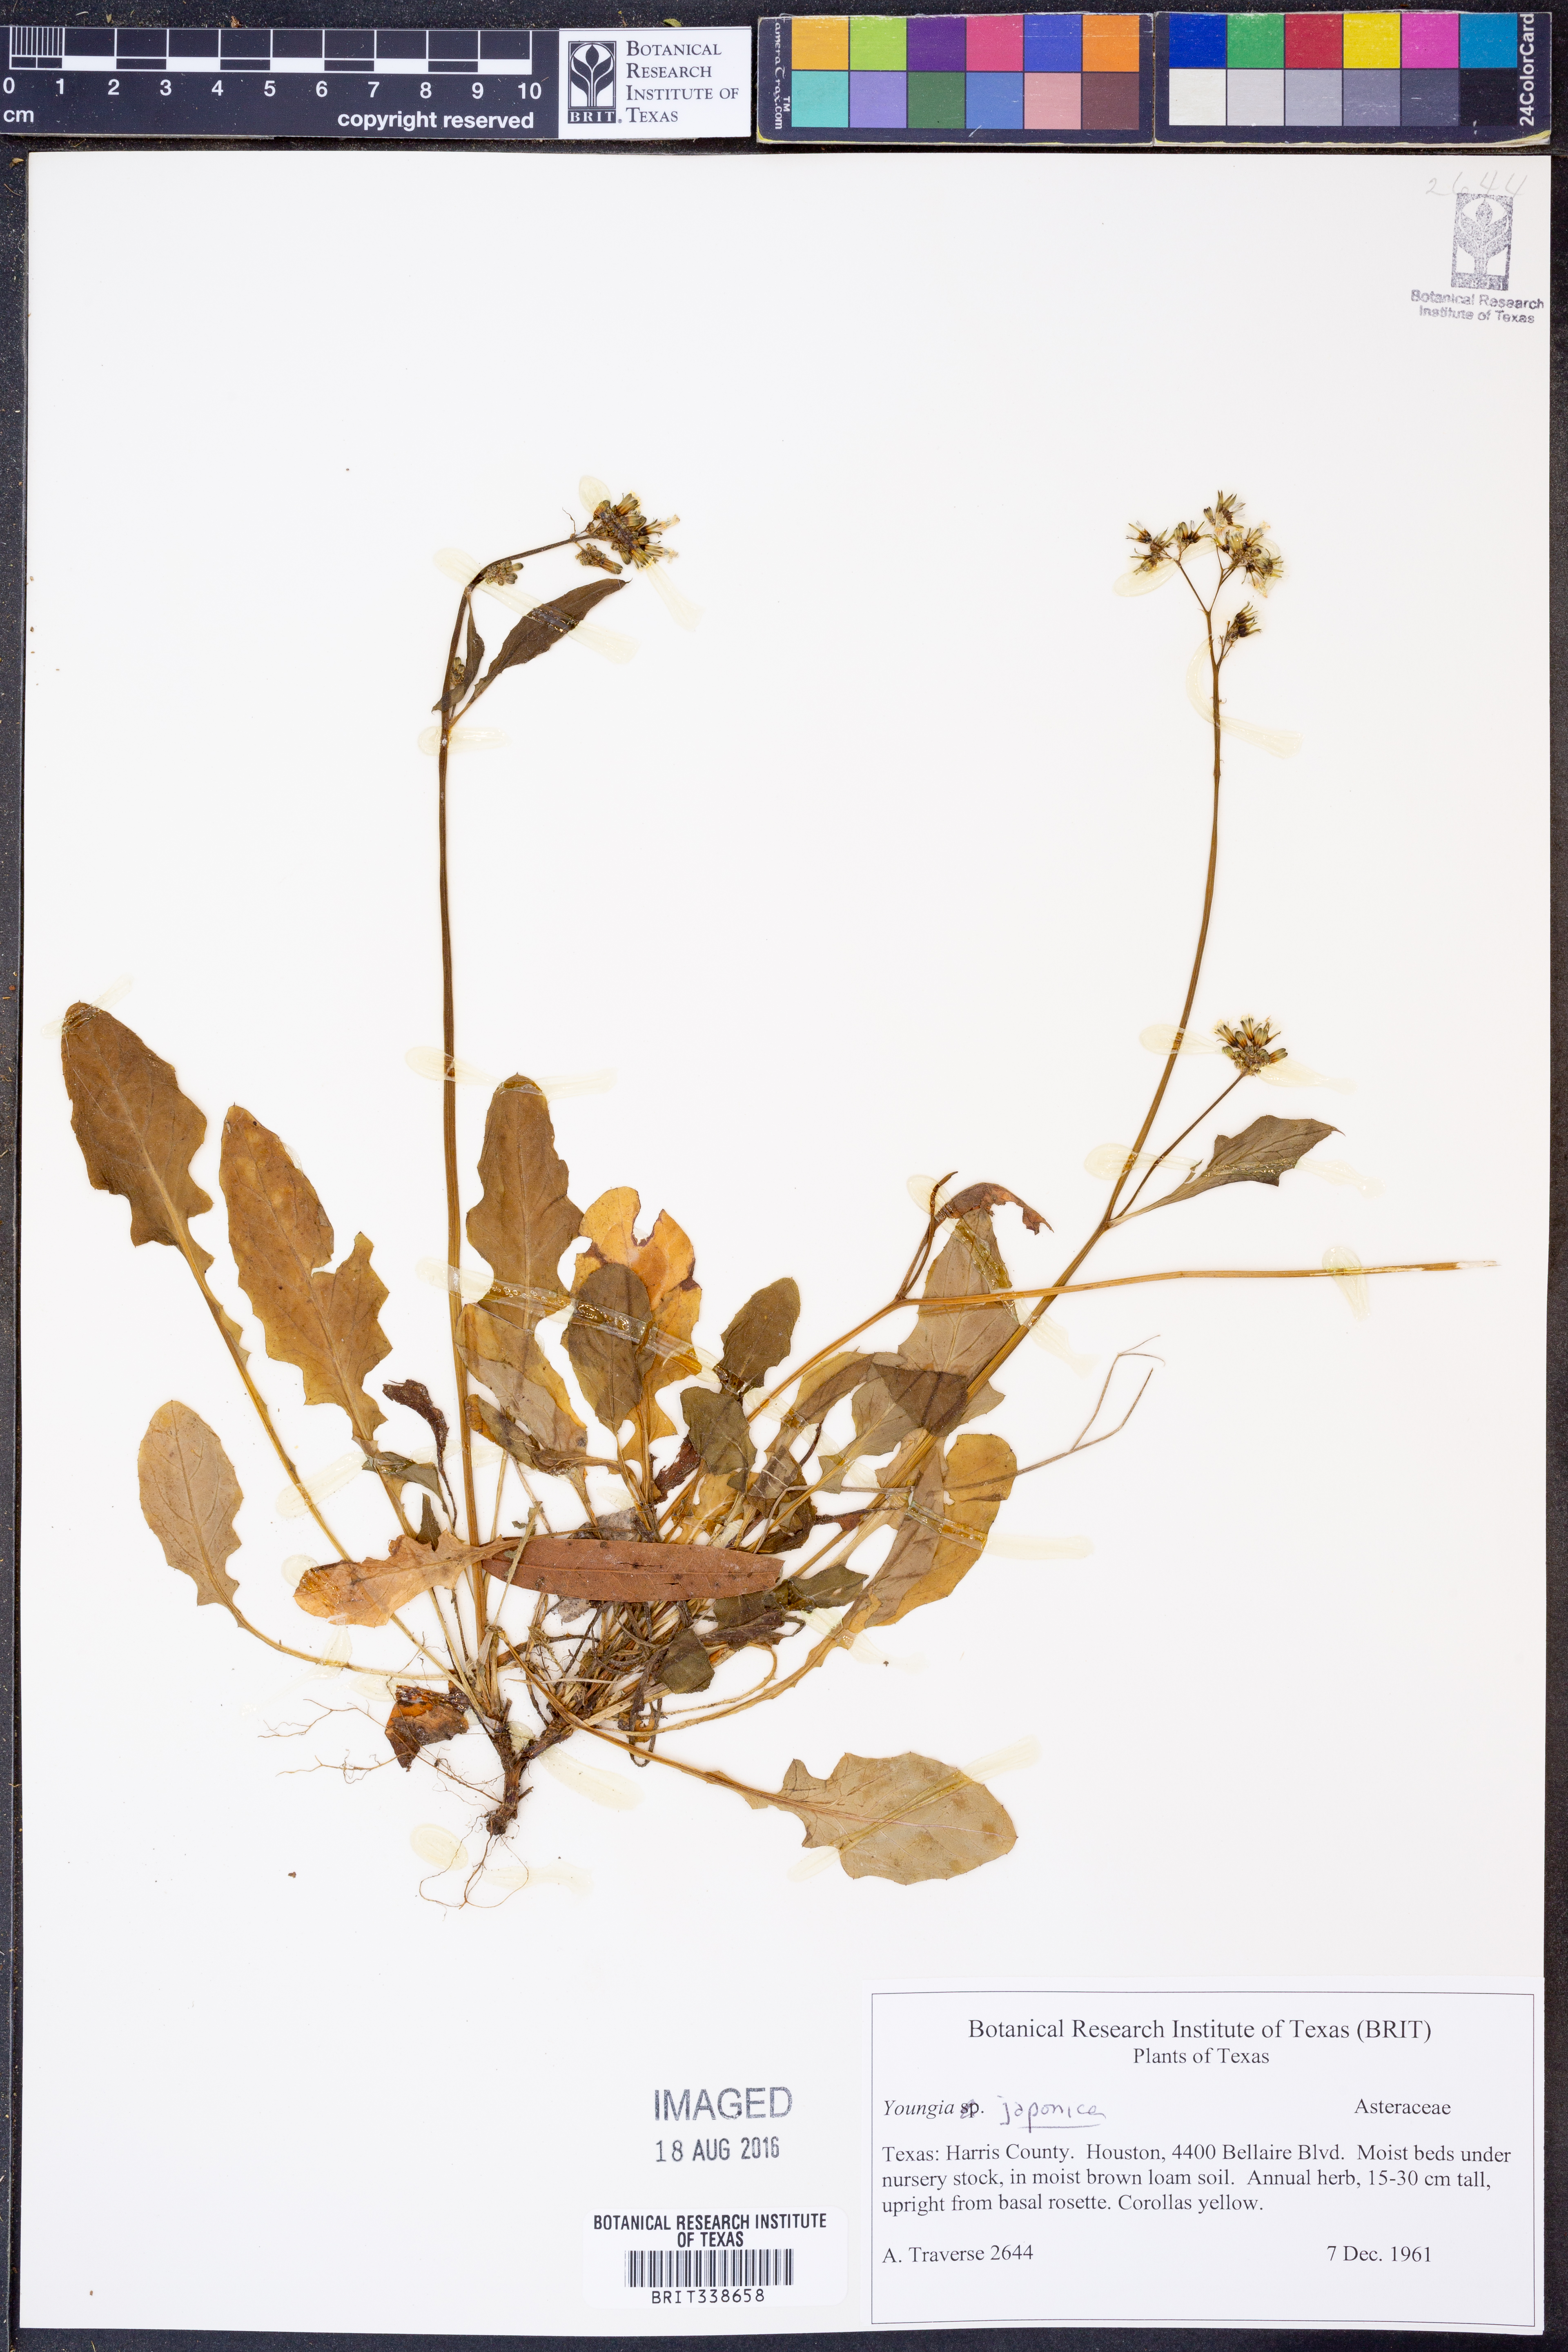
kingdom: Plantae
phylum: Tracheophyta
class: Magnoliopsida
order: Asterales
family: Asteraceae
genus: Youngia
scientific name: Youngia japonica
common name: Oriental false hawksbeard
